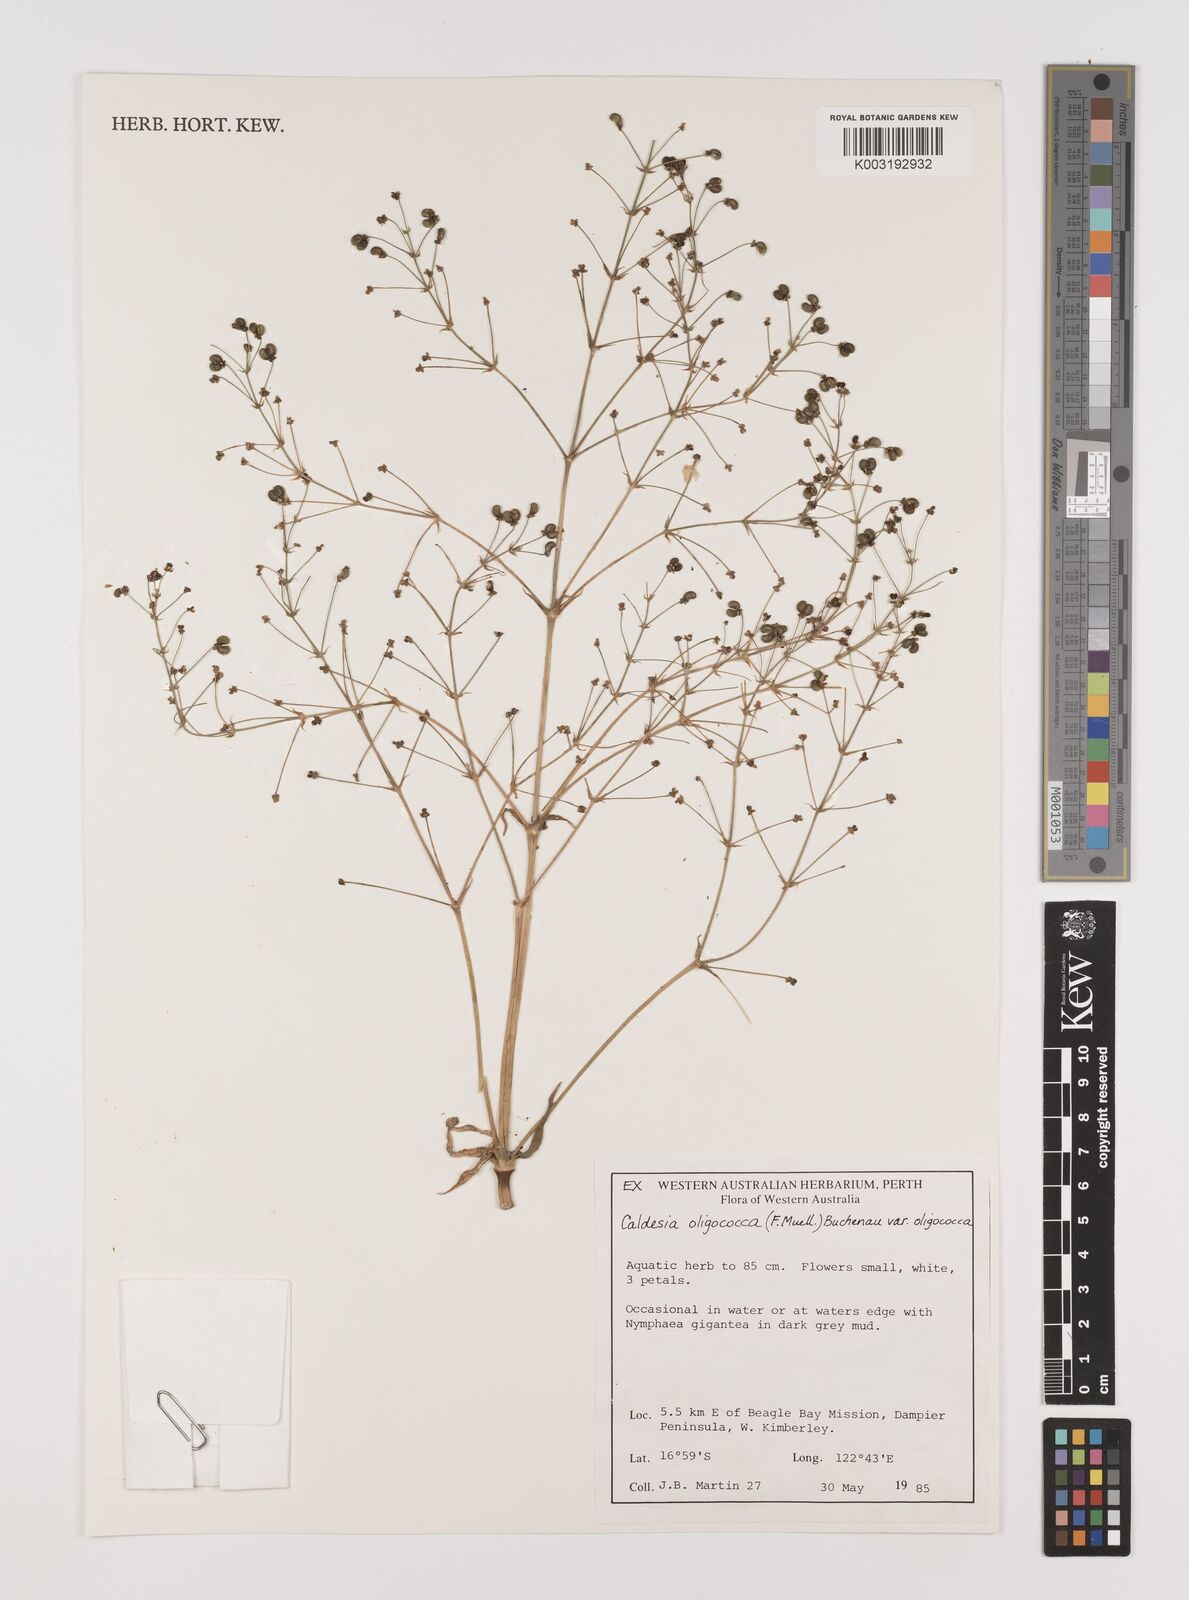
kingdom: Plantae
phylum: Tracheophyta
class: Liliopsida
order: Alismatales
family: Alismataceae
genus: Albidella
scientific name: Albidella oligococca
